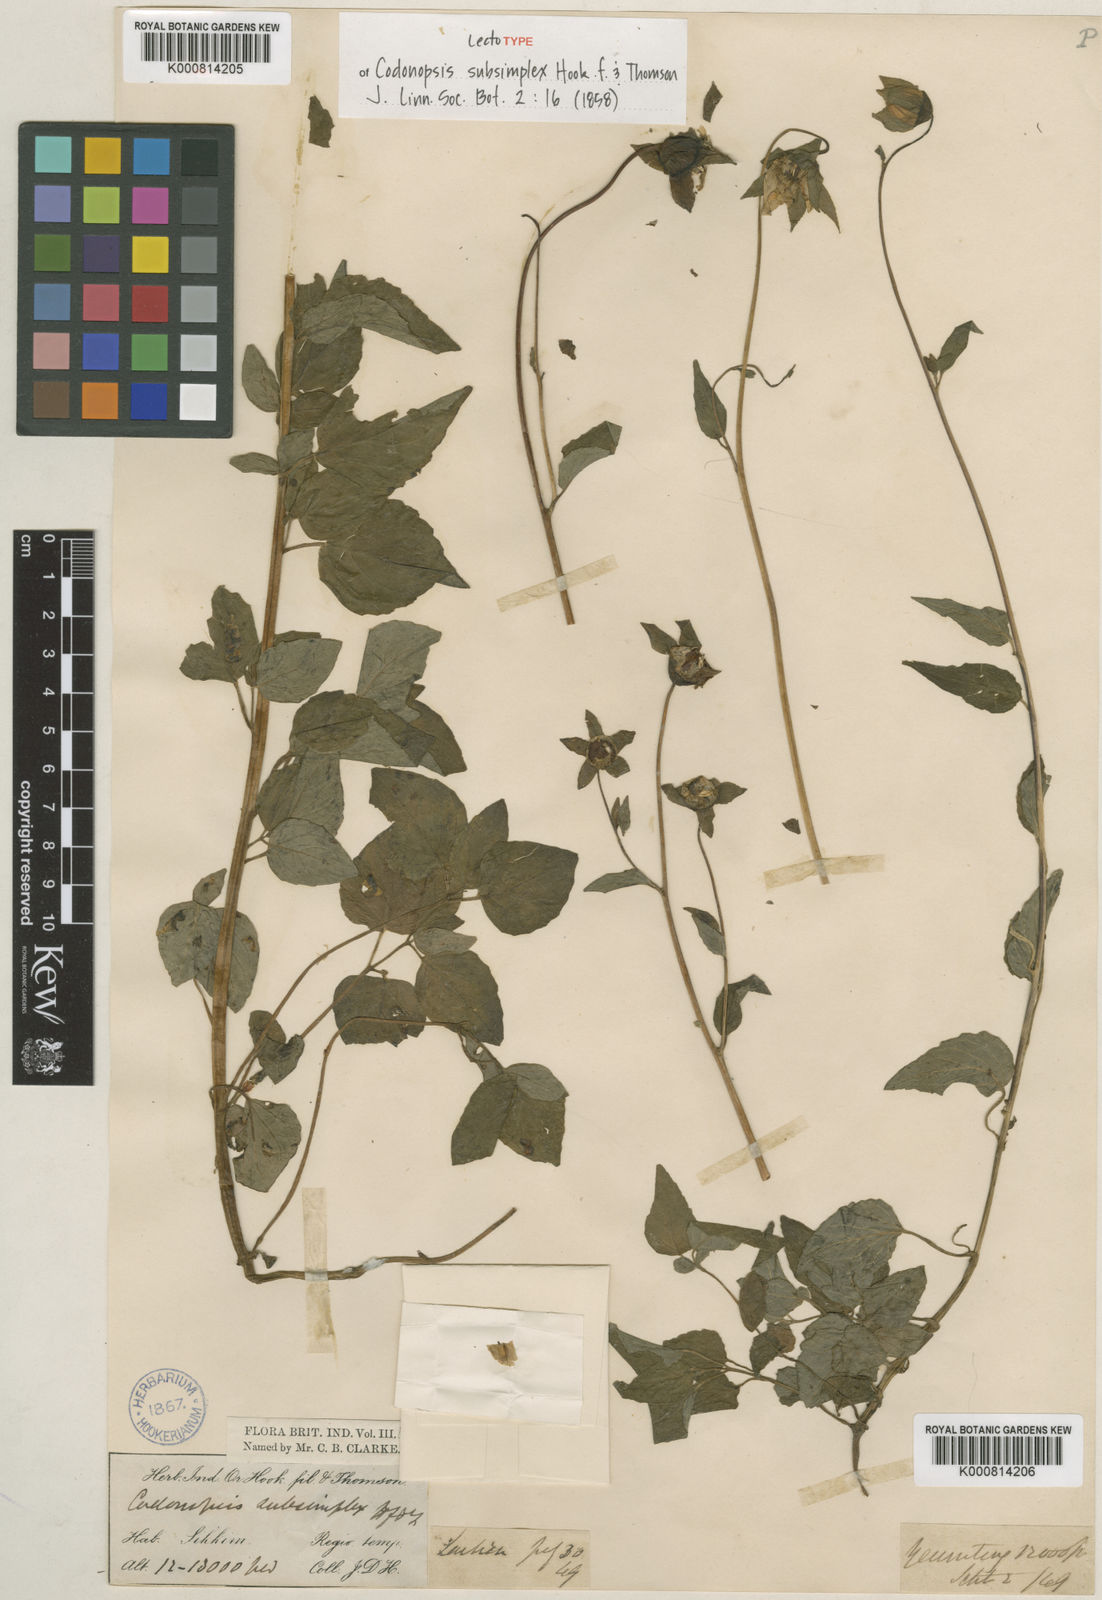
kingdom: Plantae
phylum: Tracheophyta
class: Magnoliopsida
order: Asterales
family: Campanulaceae
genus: Codonopsis
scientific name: Codonopsis subsimplex
